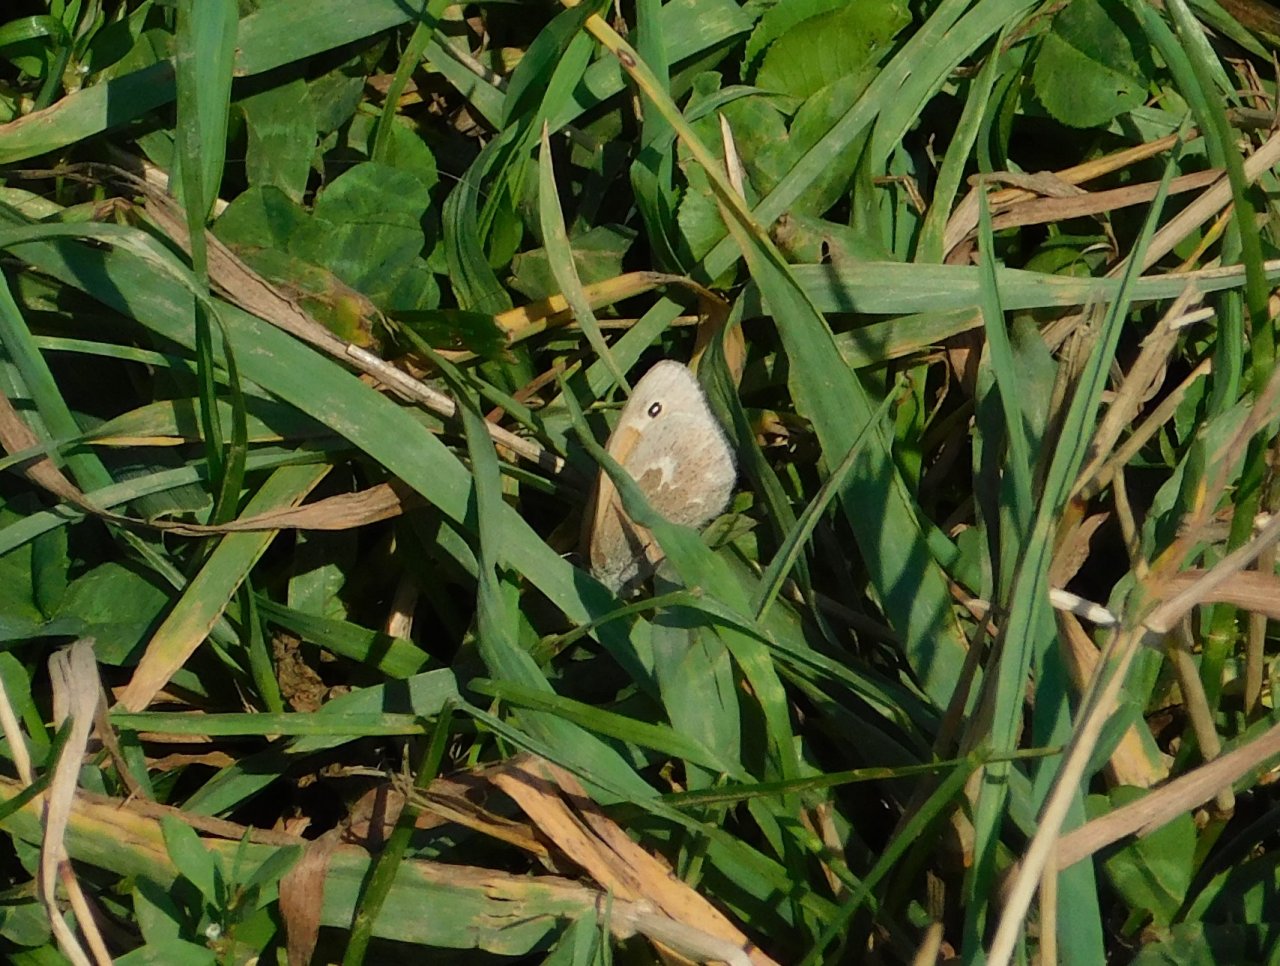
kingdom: Animalia
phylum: Arthropoda
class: Insecta
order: Lepidoptera
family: Nymphalidae
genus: Coenonympha
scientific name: Coenonympha tullia
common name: Large Heath
